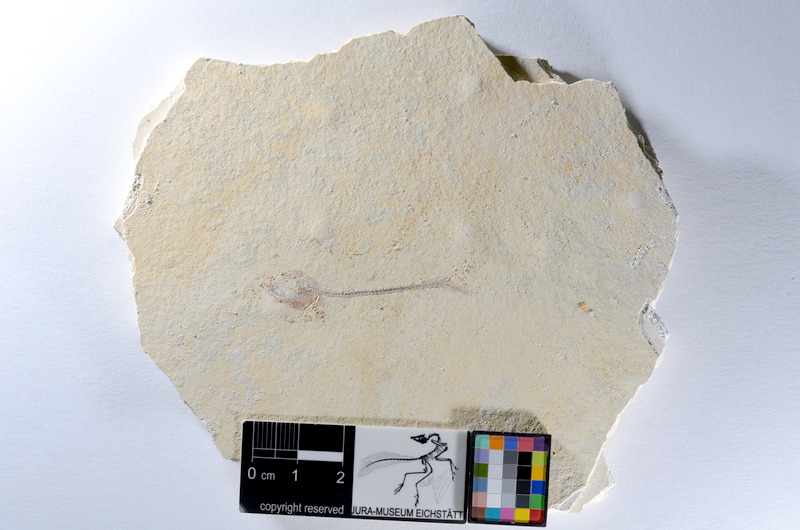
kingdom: Animalia
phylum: Chordata
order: Salmoniformes
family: Orthogonikleithridae
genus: Orthogonikleithrus
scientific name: Orthogonikleithrus hoelli
